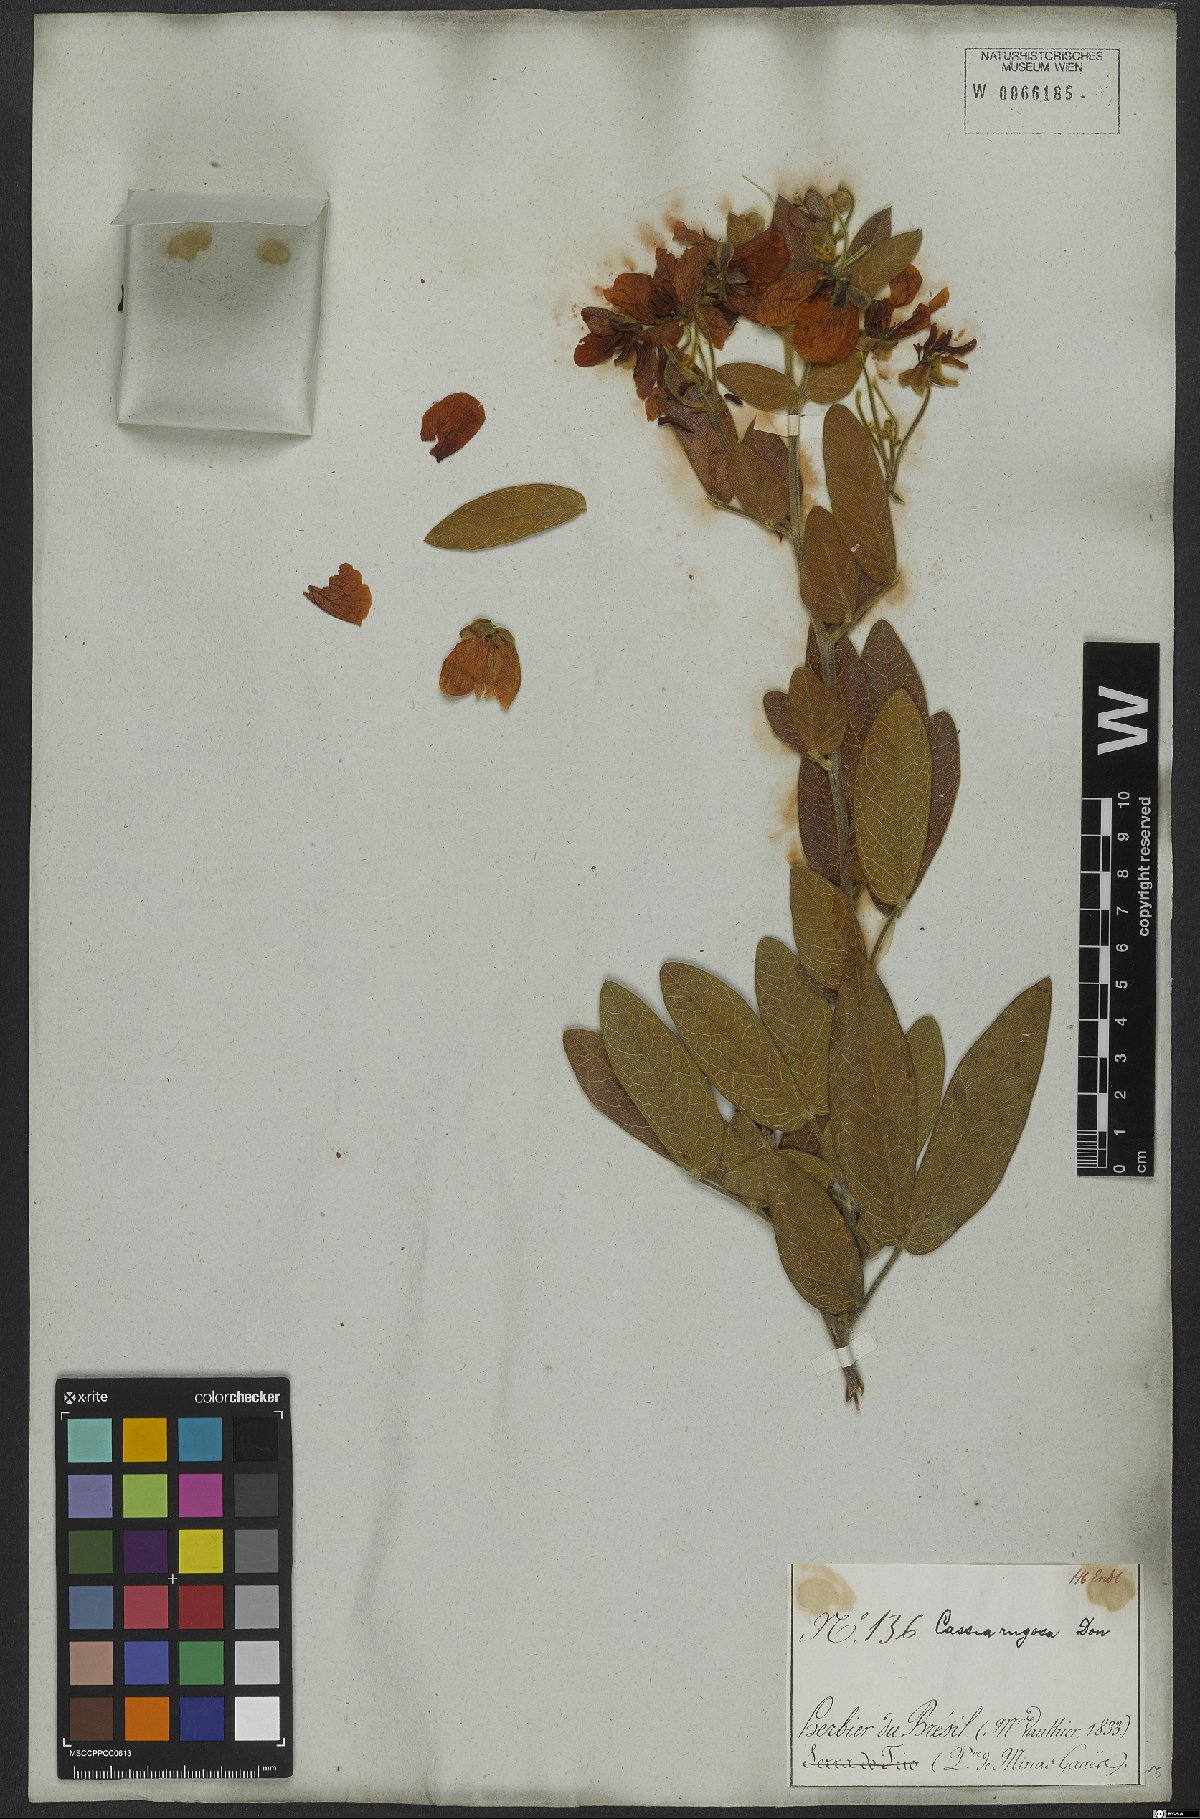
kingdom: Plantae
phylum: Tracheophyta
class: Magnoliopsida
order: Fabales
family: Fabaceae
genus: Senna
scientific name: Senna rugosa
